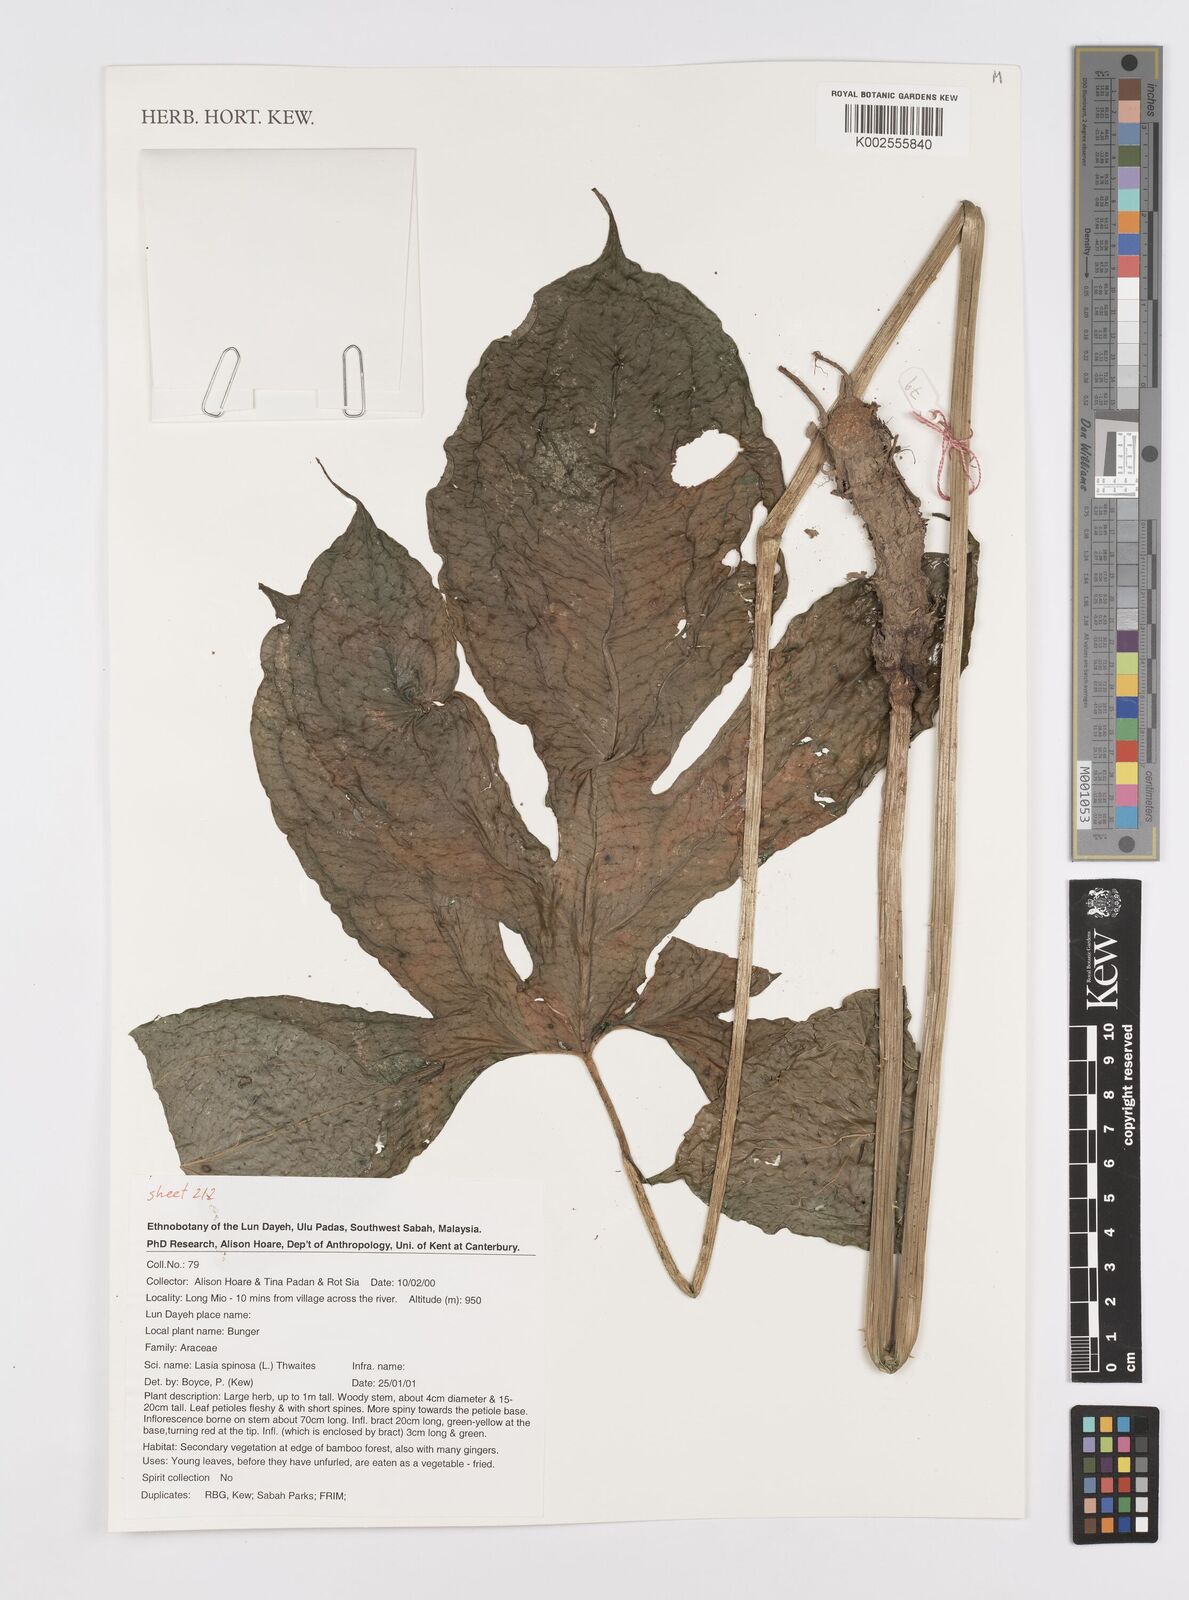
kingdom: Plantae
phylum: Tracheophyta
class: Liliopsida
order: Alismatales
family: Araceae
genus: Lasia
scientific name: Lasia spinosa
